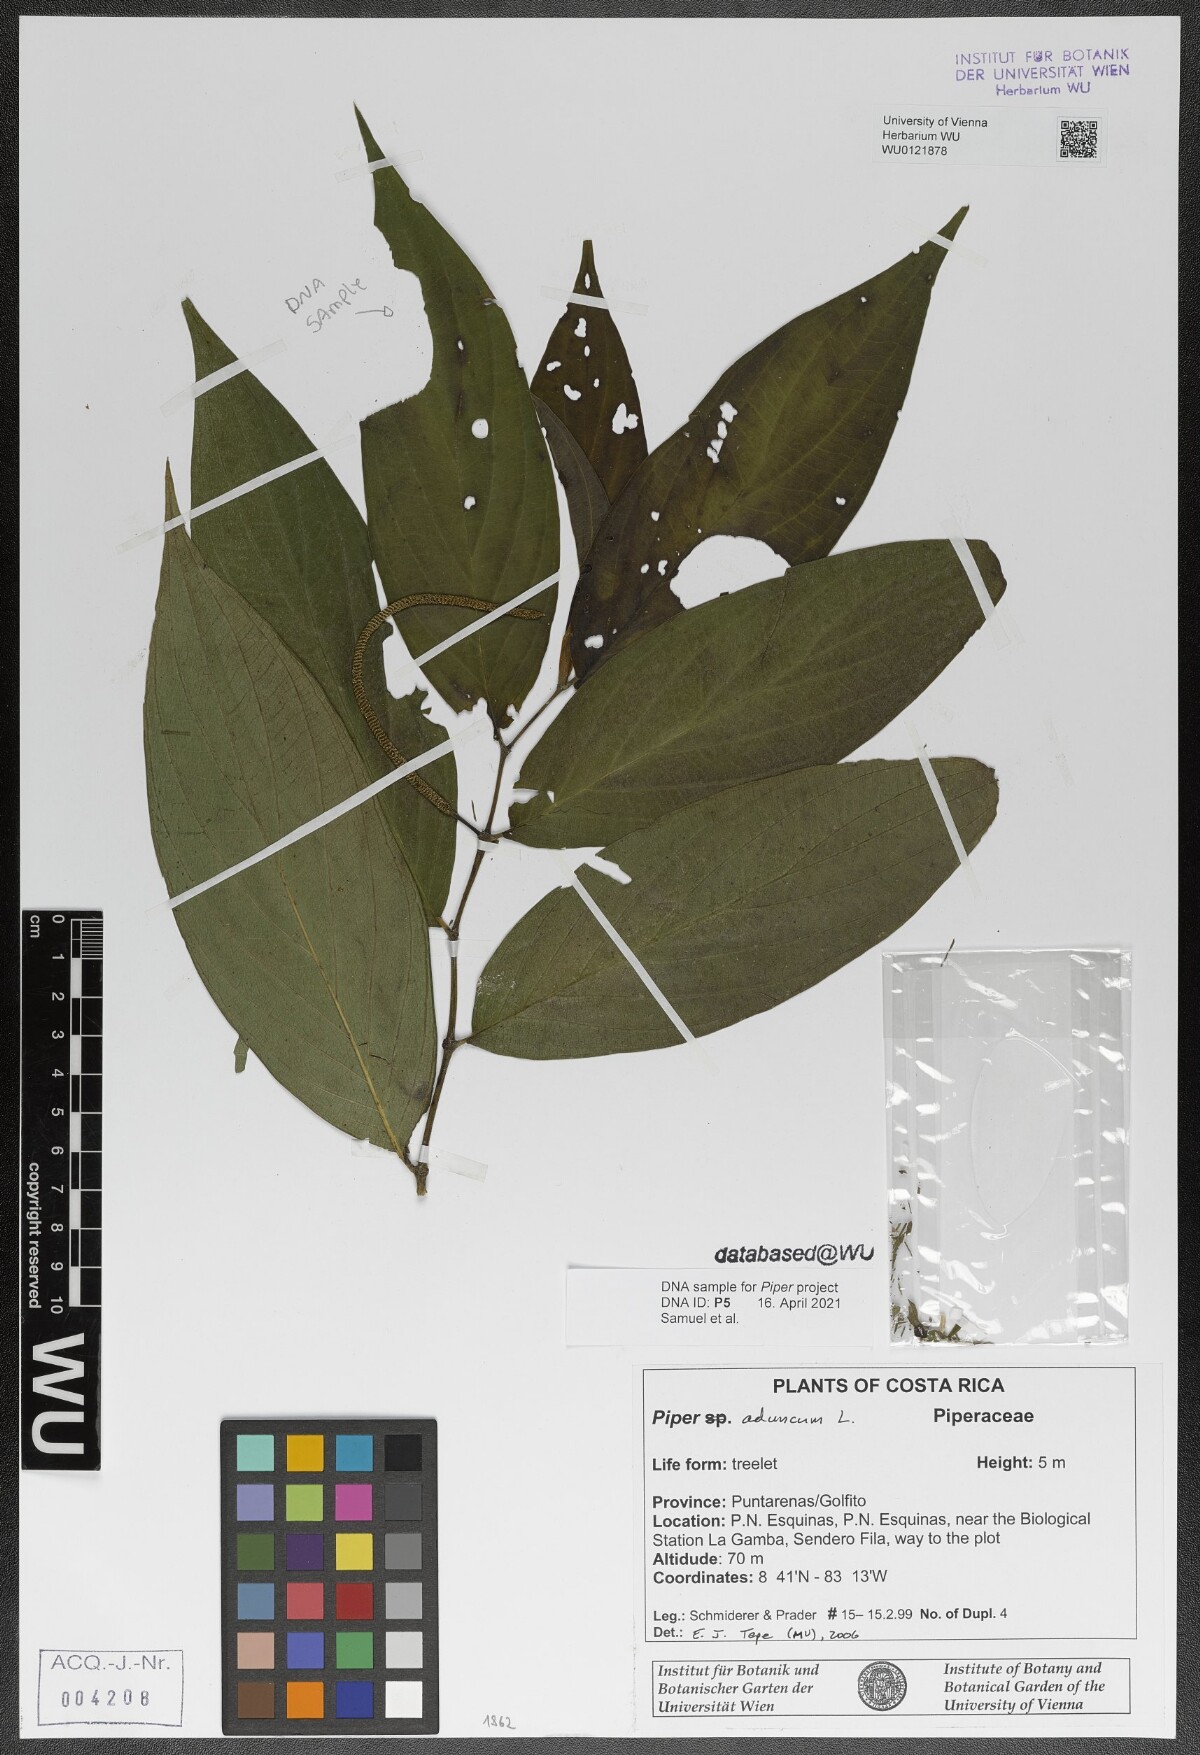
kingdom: Plantae
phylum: Tracheophyta
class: Magnoliopsida
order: Piperales
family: Piperaceae
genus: Piper
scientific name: Piper aduncum
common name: Spiked pepper
